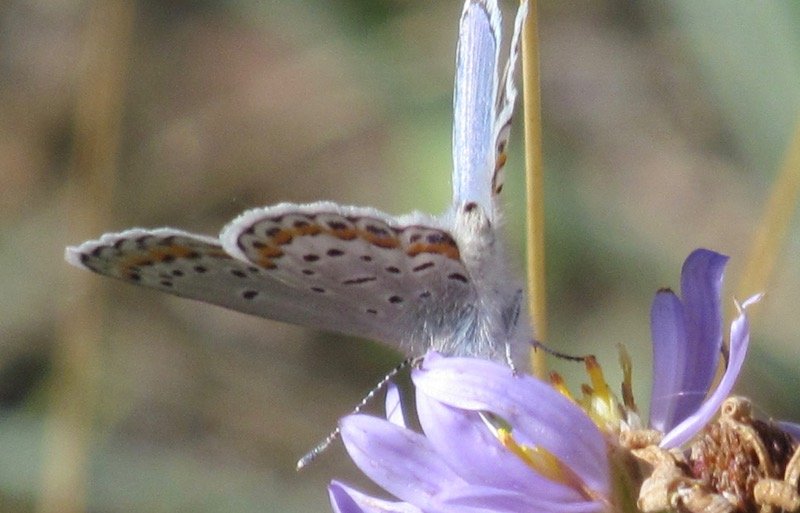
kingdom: Animalia
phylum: Arthropoda
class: Insecta
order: Lepidoptera
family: Lycaenidae
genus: Lycaeides
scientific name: Lycaeides melissa
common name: Melissa Blue
